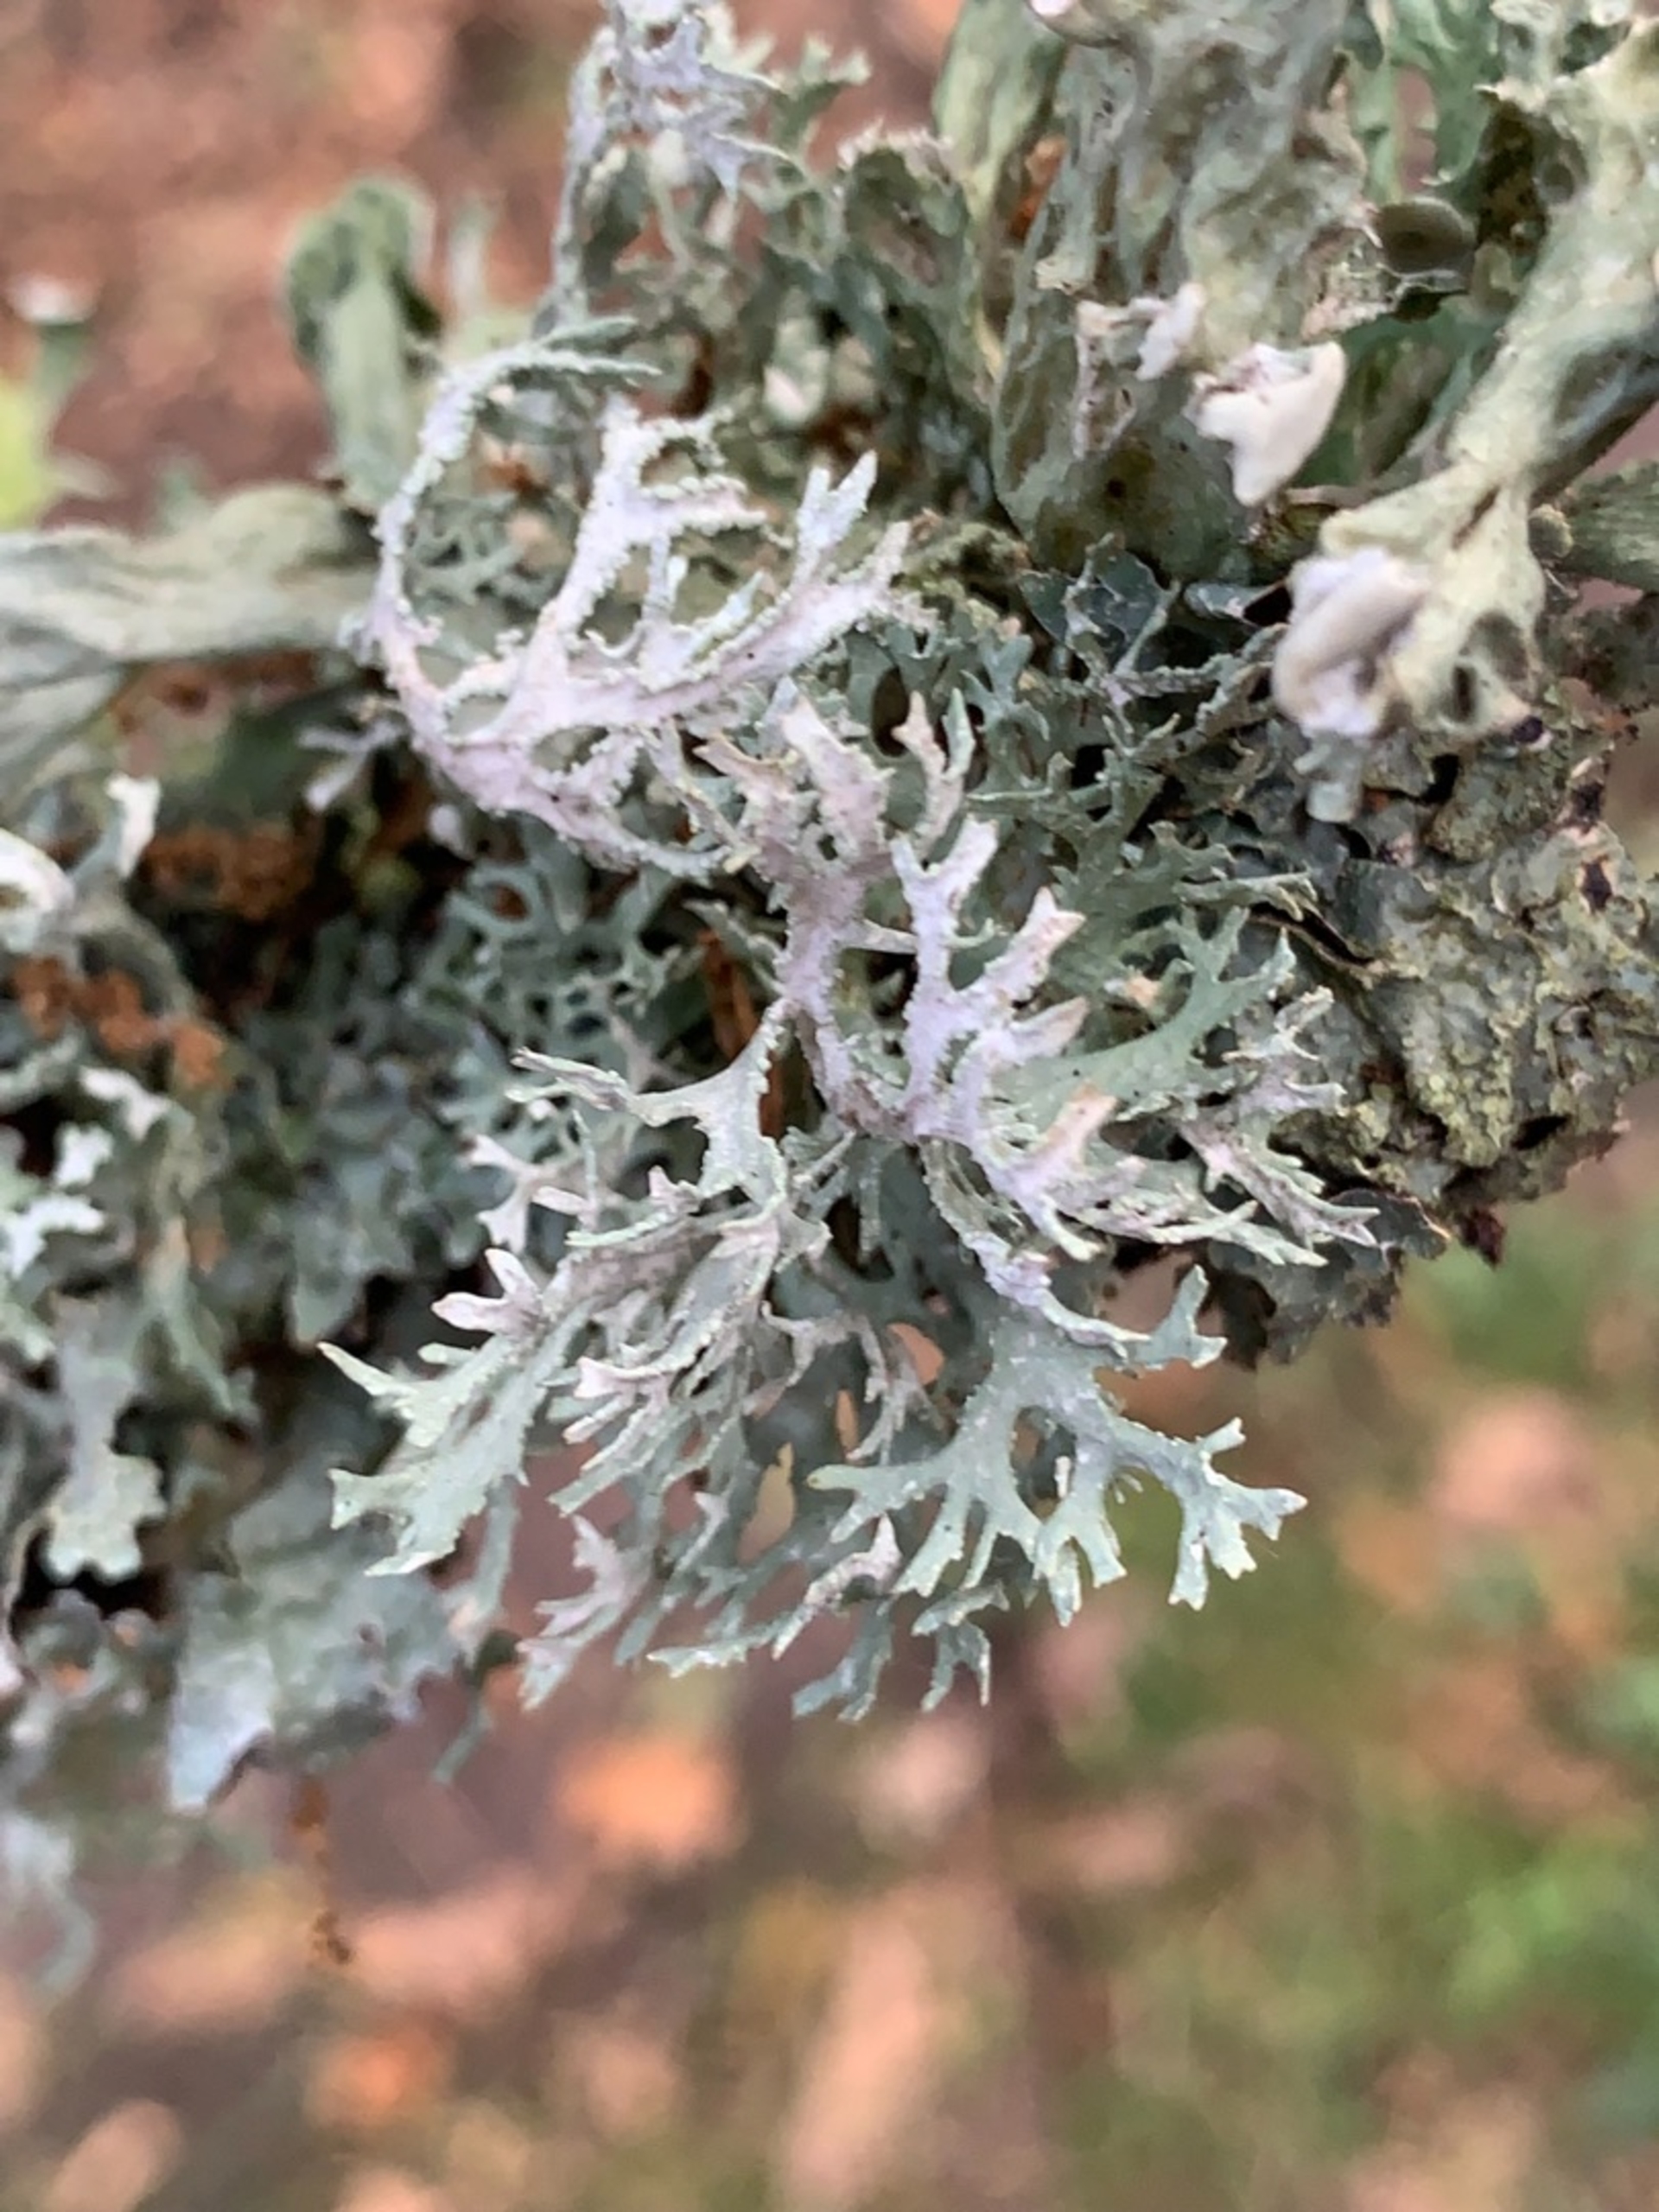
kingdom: Fungi
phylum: Ascomycota
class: Lecanoromycetes
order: Lecanorales
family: Parmeliaceae
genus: Evernia
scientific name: Evernia prunastri
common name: Almindelig slåenlav
